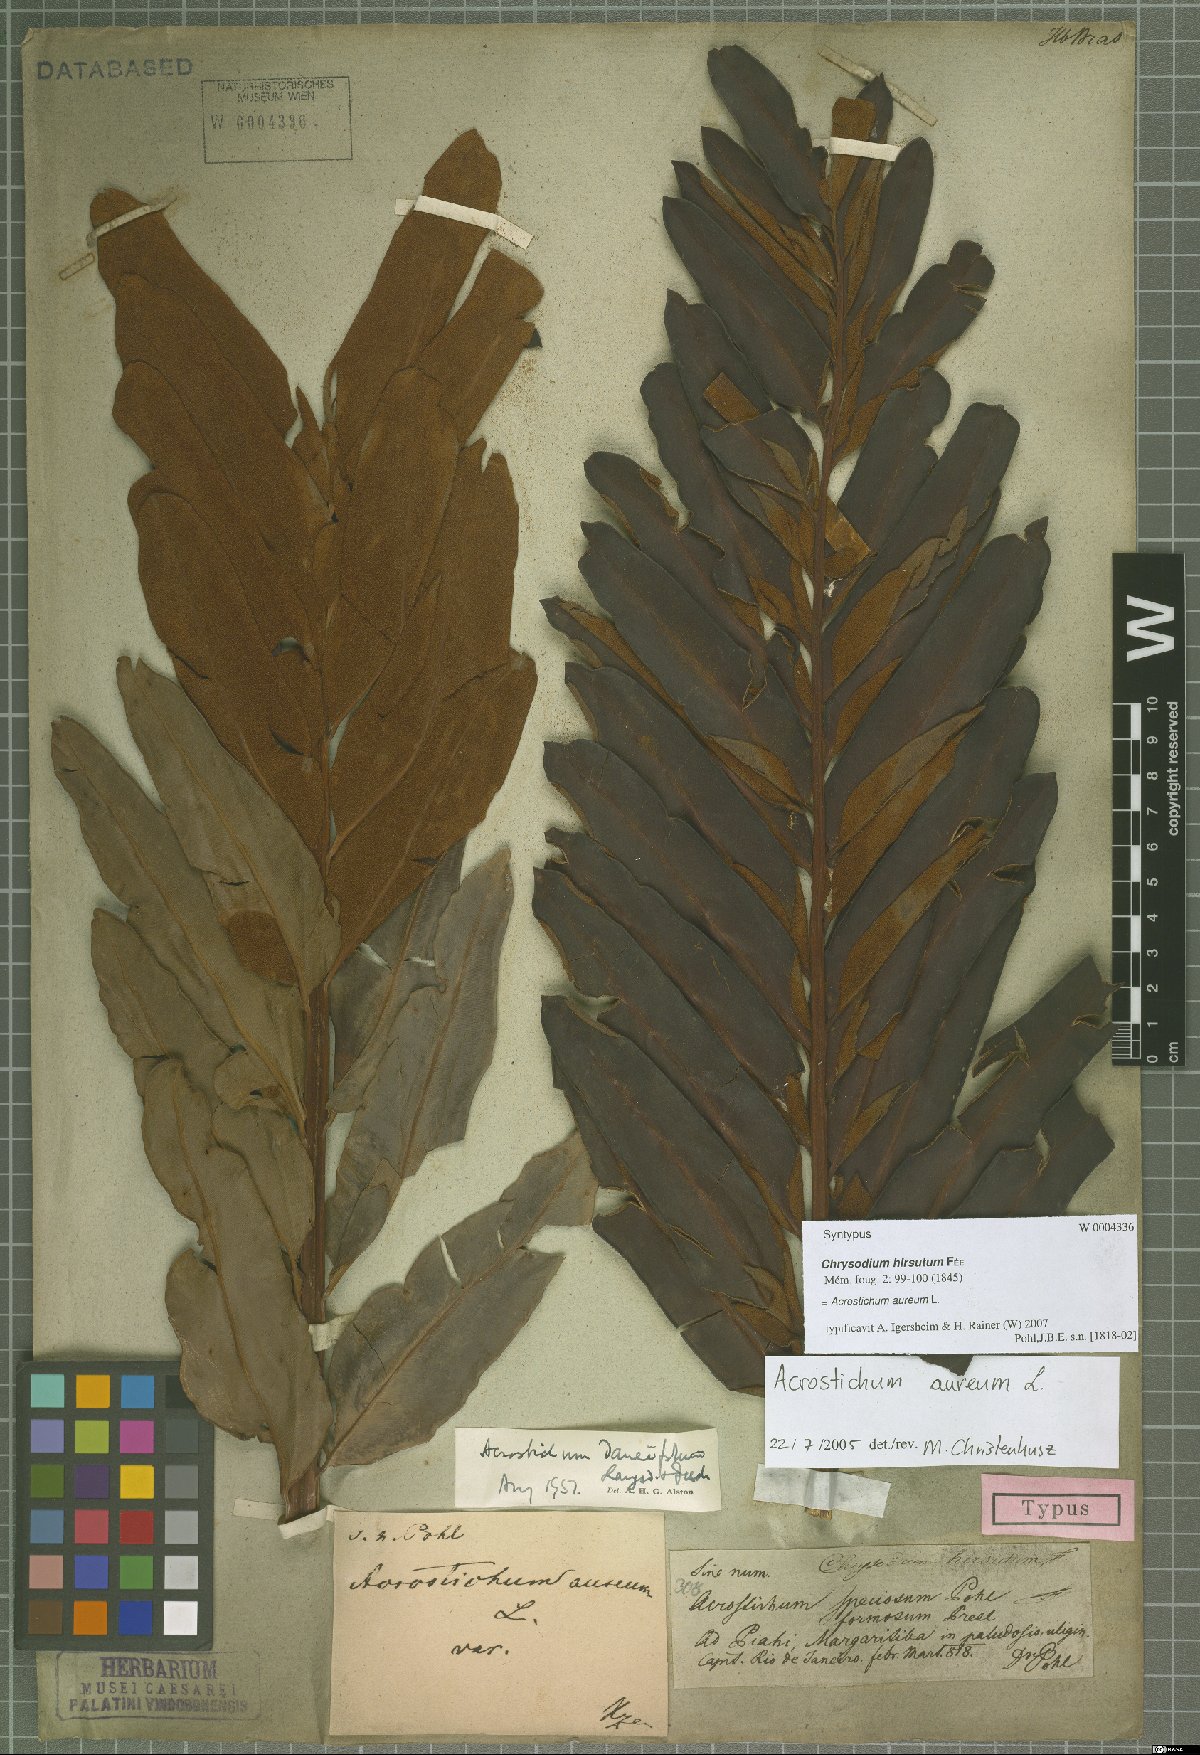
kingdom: Plantae
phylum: Tracheophyta
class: Polypodiopsida
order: Polypodiales
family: Pteridaceae
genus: Acrostichum
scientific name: Acrostichum aureum
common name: Leather fern
